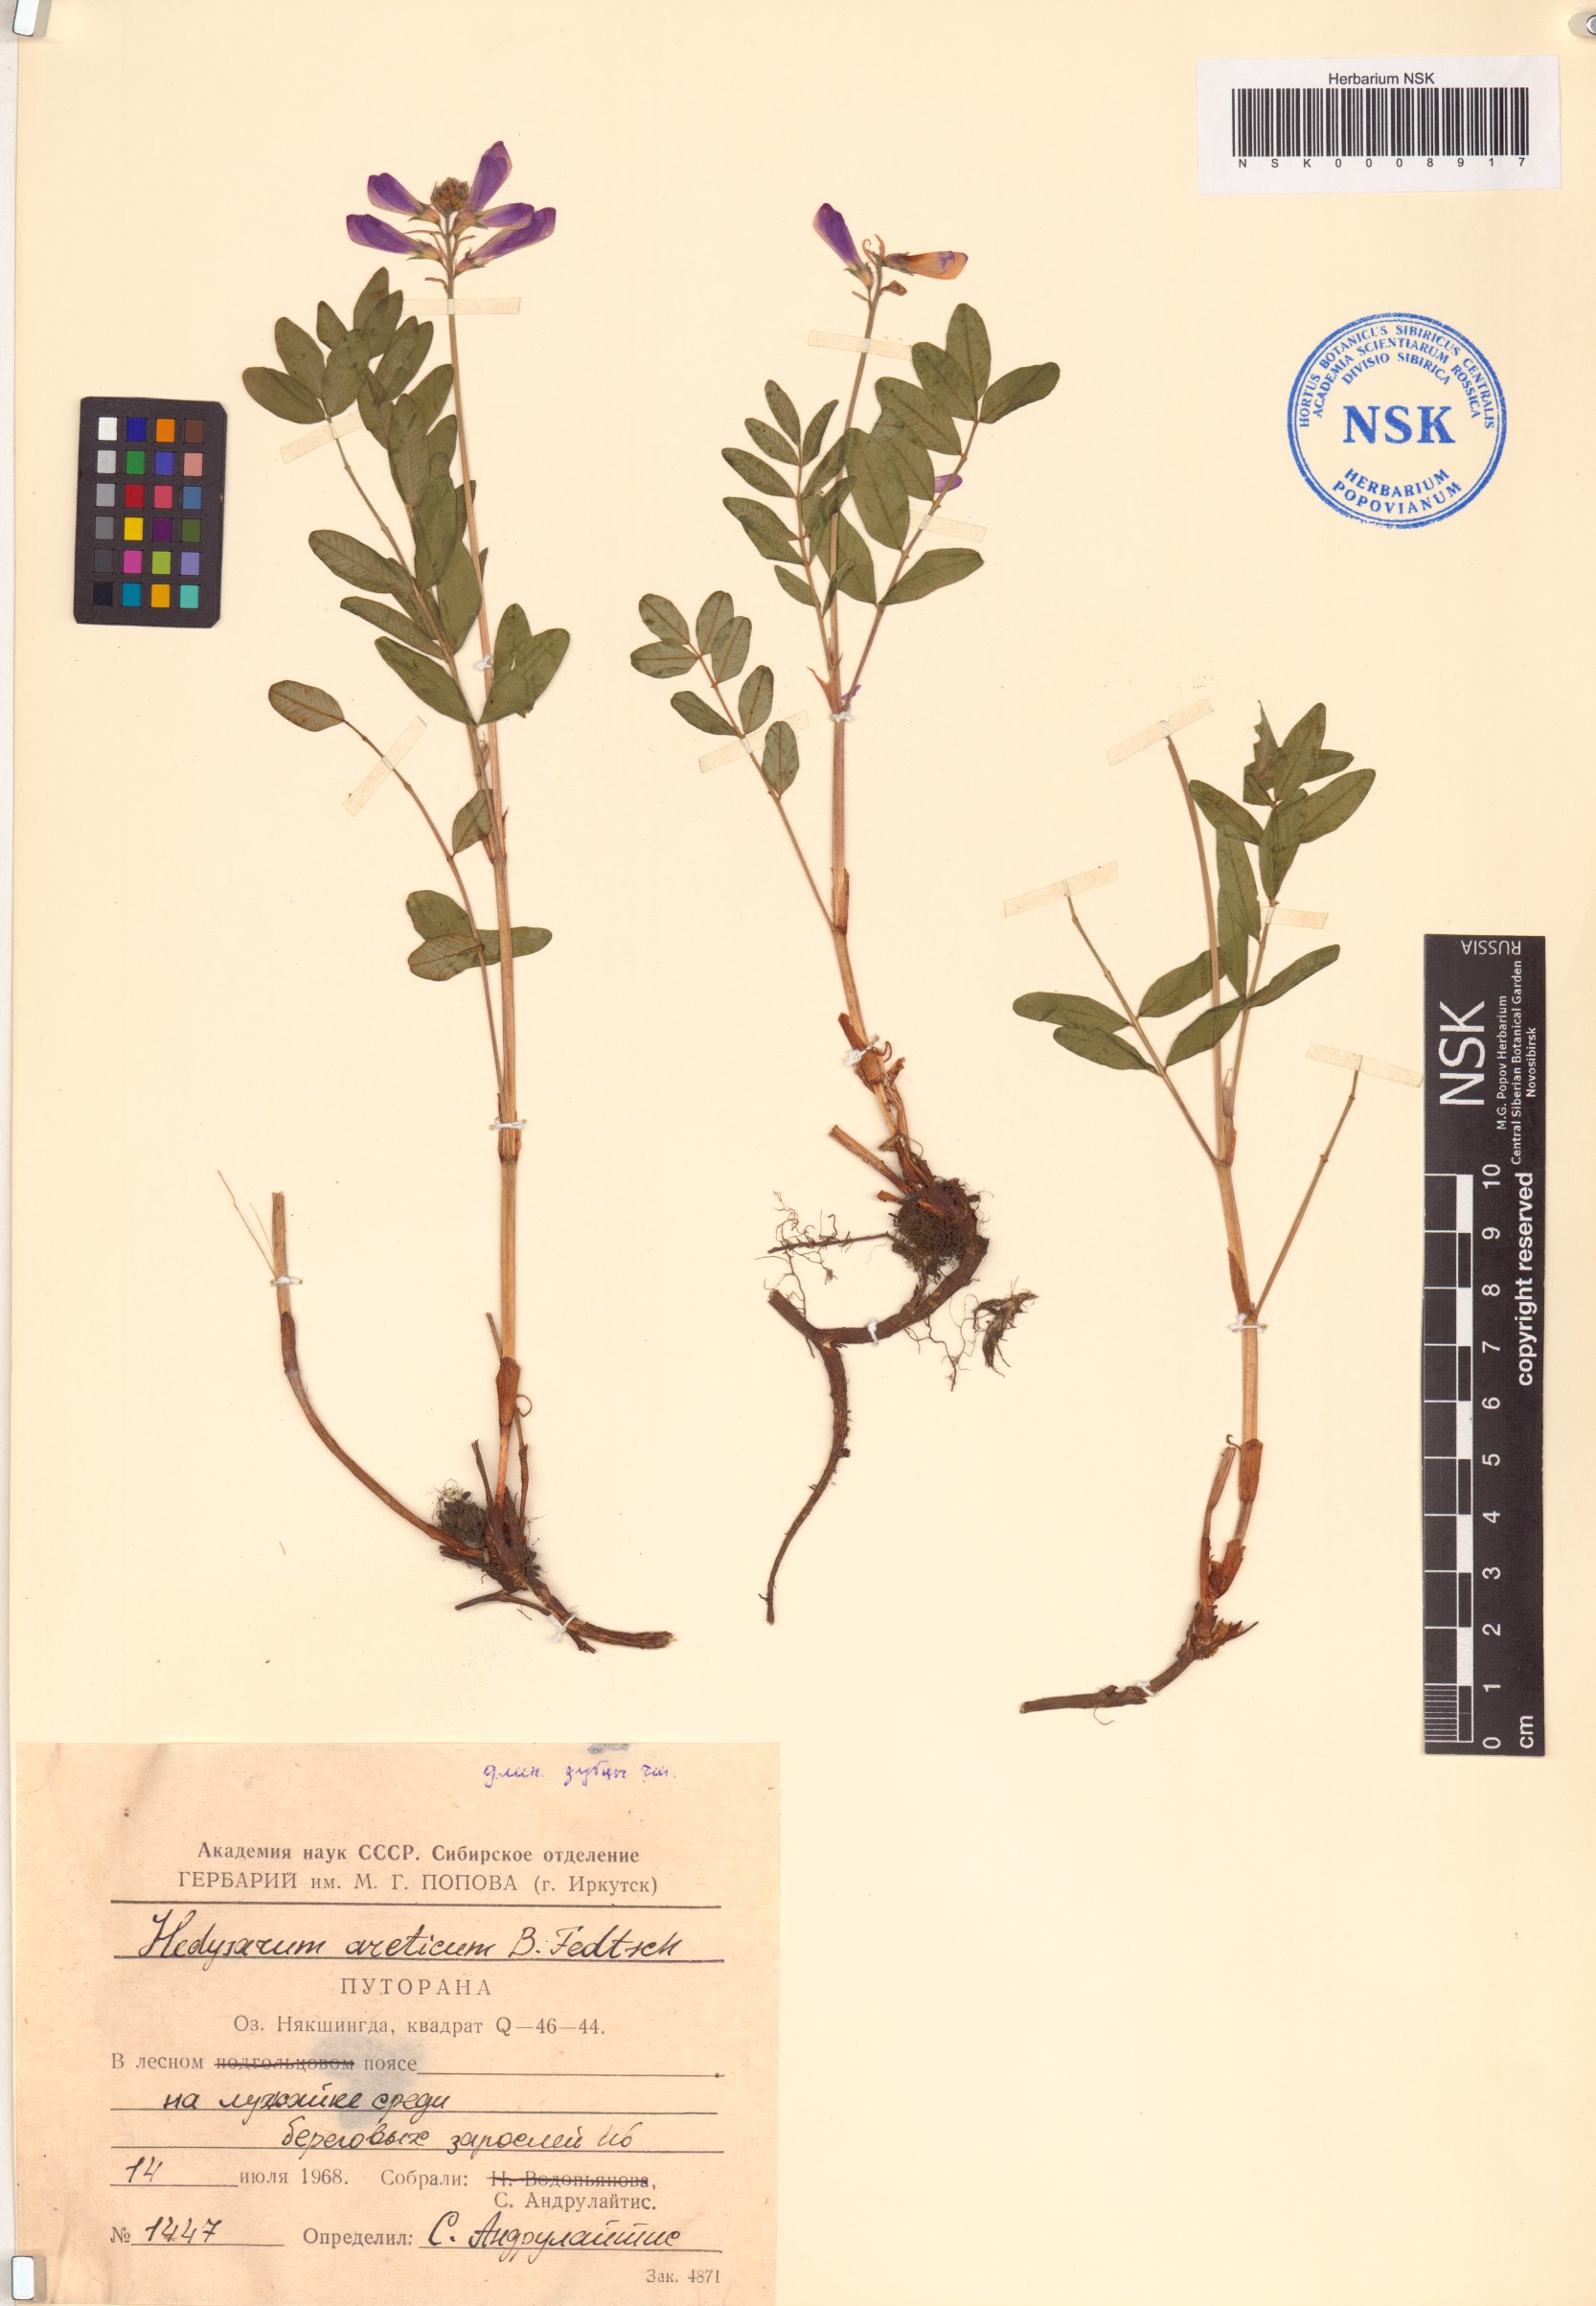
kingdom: Plantae
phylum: Tracheophyta
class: Magnoliopsida
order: Fabales
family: Fabaceae
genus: Hedysarum
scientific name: Hedysarum hedysaroides
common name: Alpine french-honeysuckle
